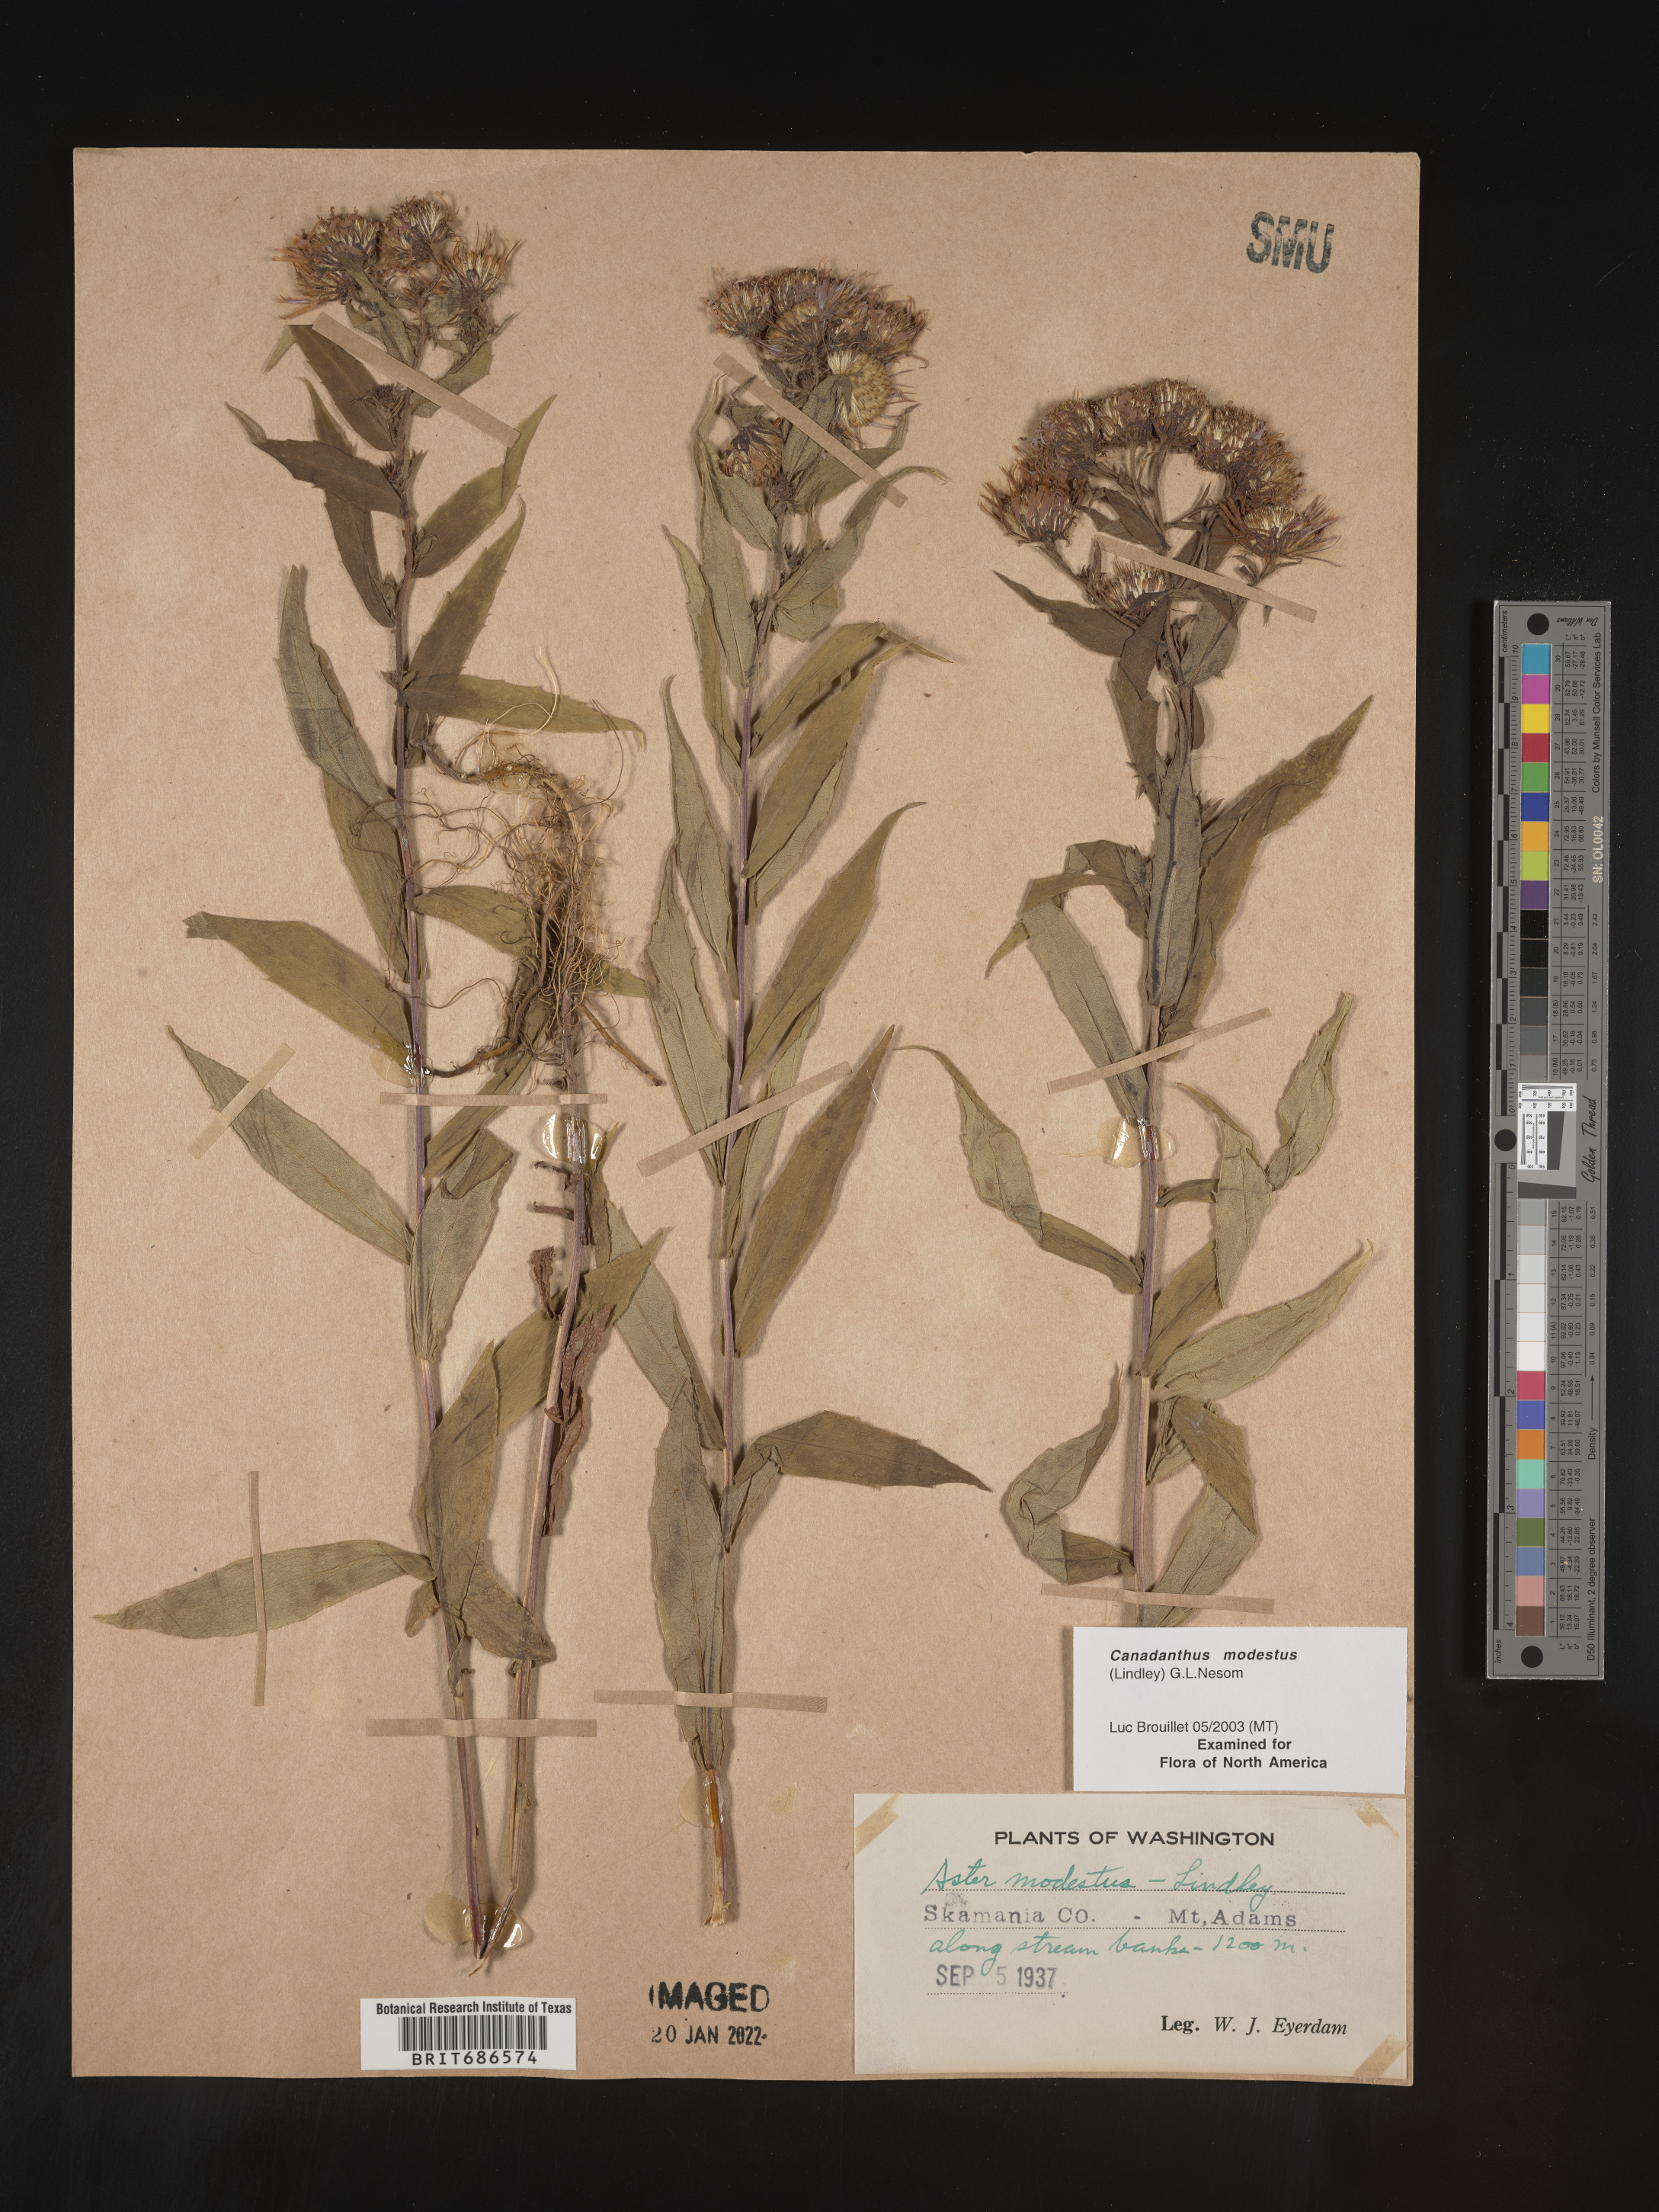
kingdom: Plantae
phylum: Tracheophyta
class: Magnoliopsida
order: Asterales
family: Asteraceae
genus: Canadanthus
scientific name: Canadanthus modestus
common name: Great northern aster
